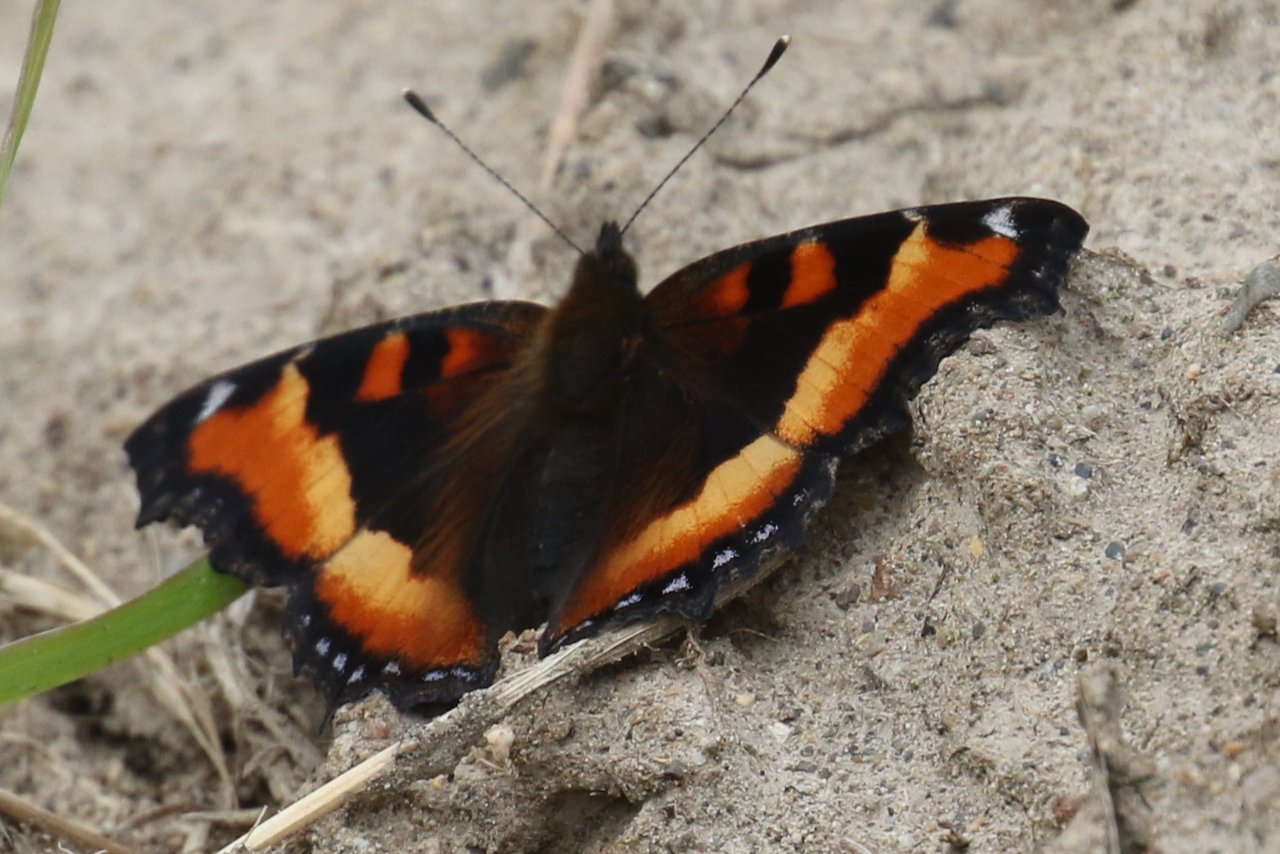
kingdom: Animalia
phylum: Arthropoda
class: Insecta
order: Lepidoptera
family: Nymphalidae
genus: Aglais
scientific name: Aglais milberti
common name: Milbert's Tortoiseshell
